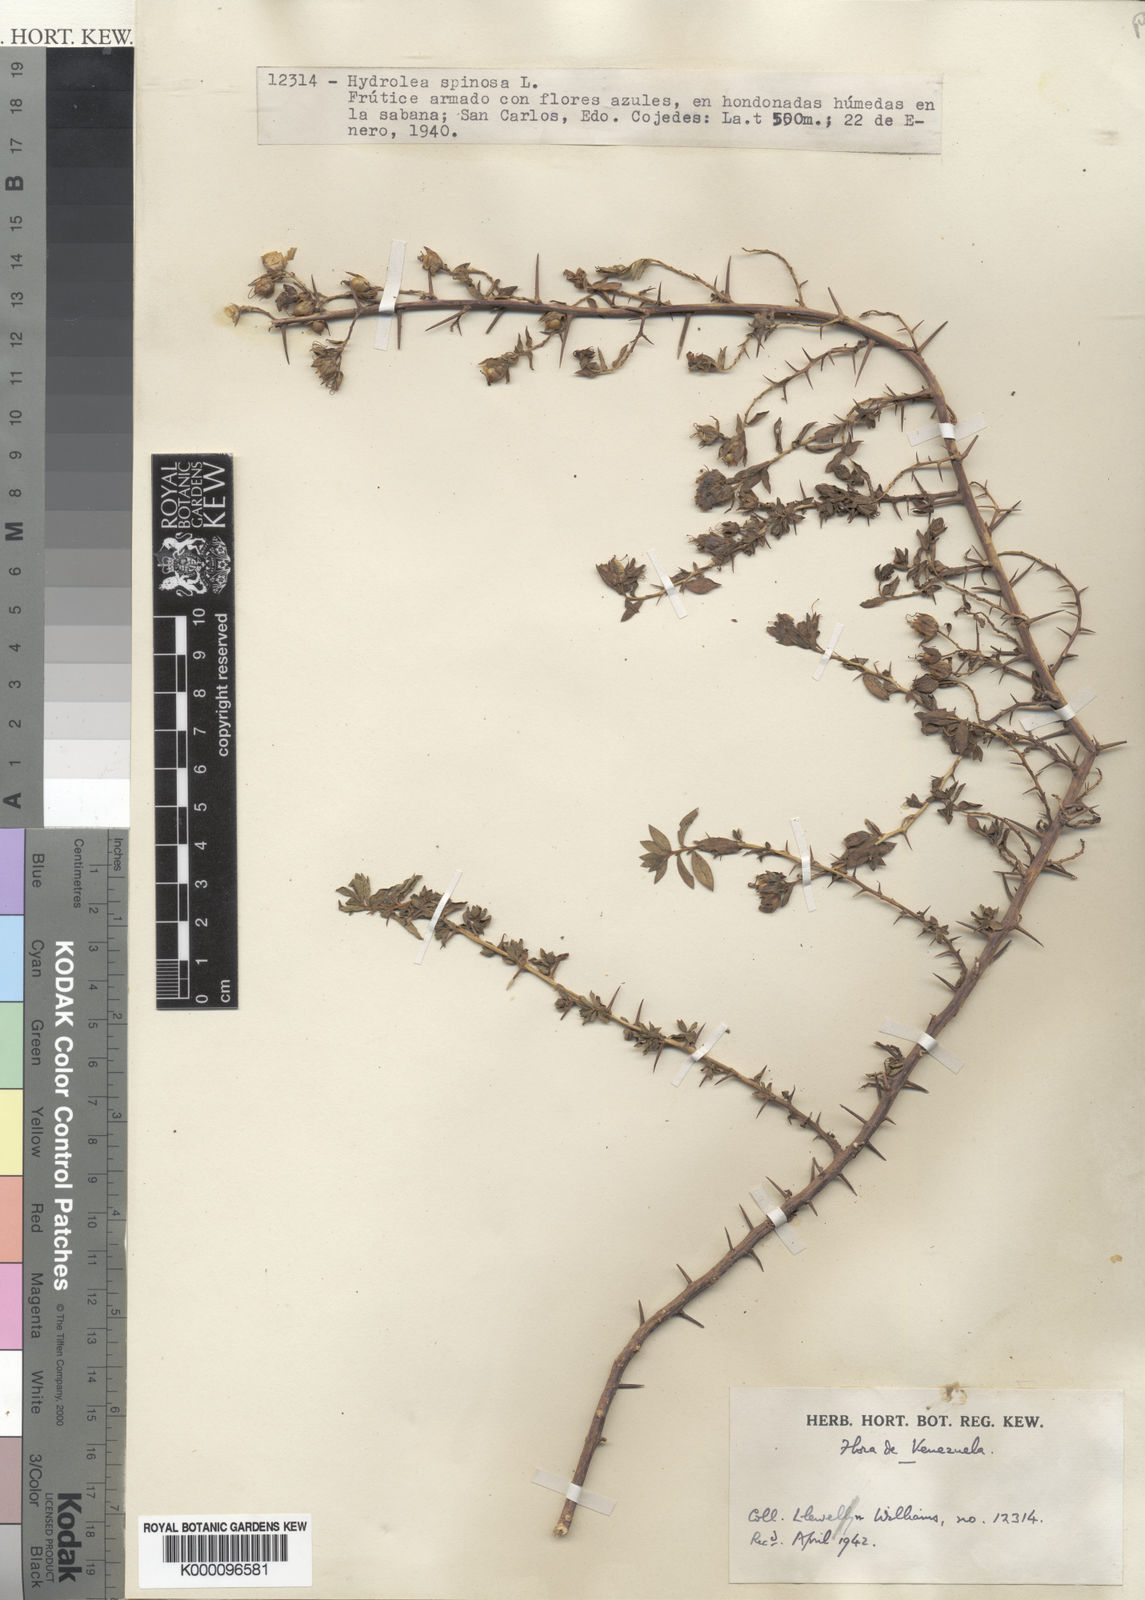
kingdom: Plantae
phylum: Tracheophyta
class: Magnoliopsida
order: Solanales
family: Hydroleaceae
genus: Hydrolea
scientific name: Hydrolea spinosa
